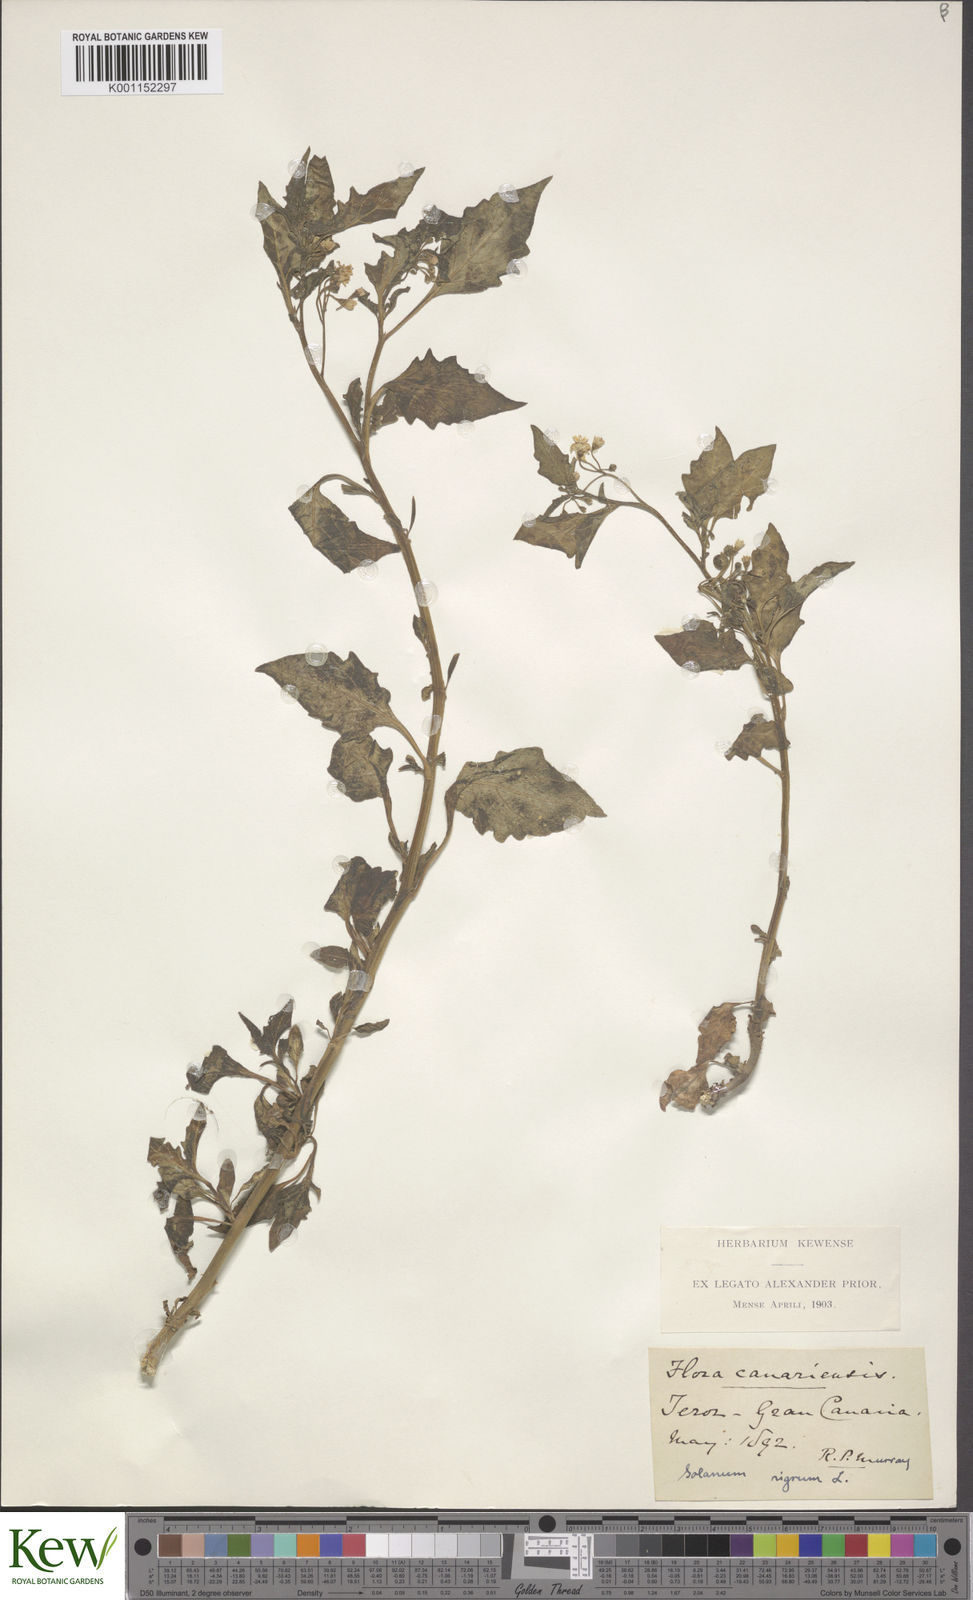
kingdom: Plantae
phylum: Tracheophyta
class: Magnoliopsida
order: Solanales
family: Solanaceae
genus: Solanum
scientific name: Solanum nigrum
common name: Black nightshade
